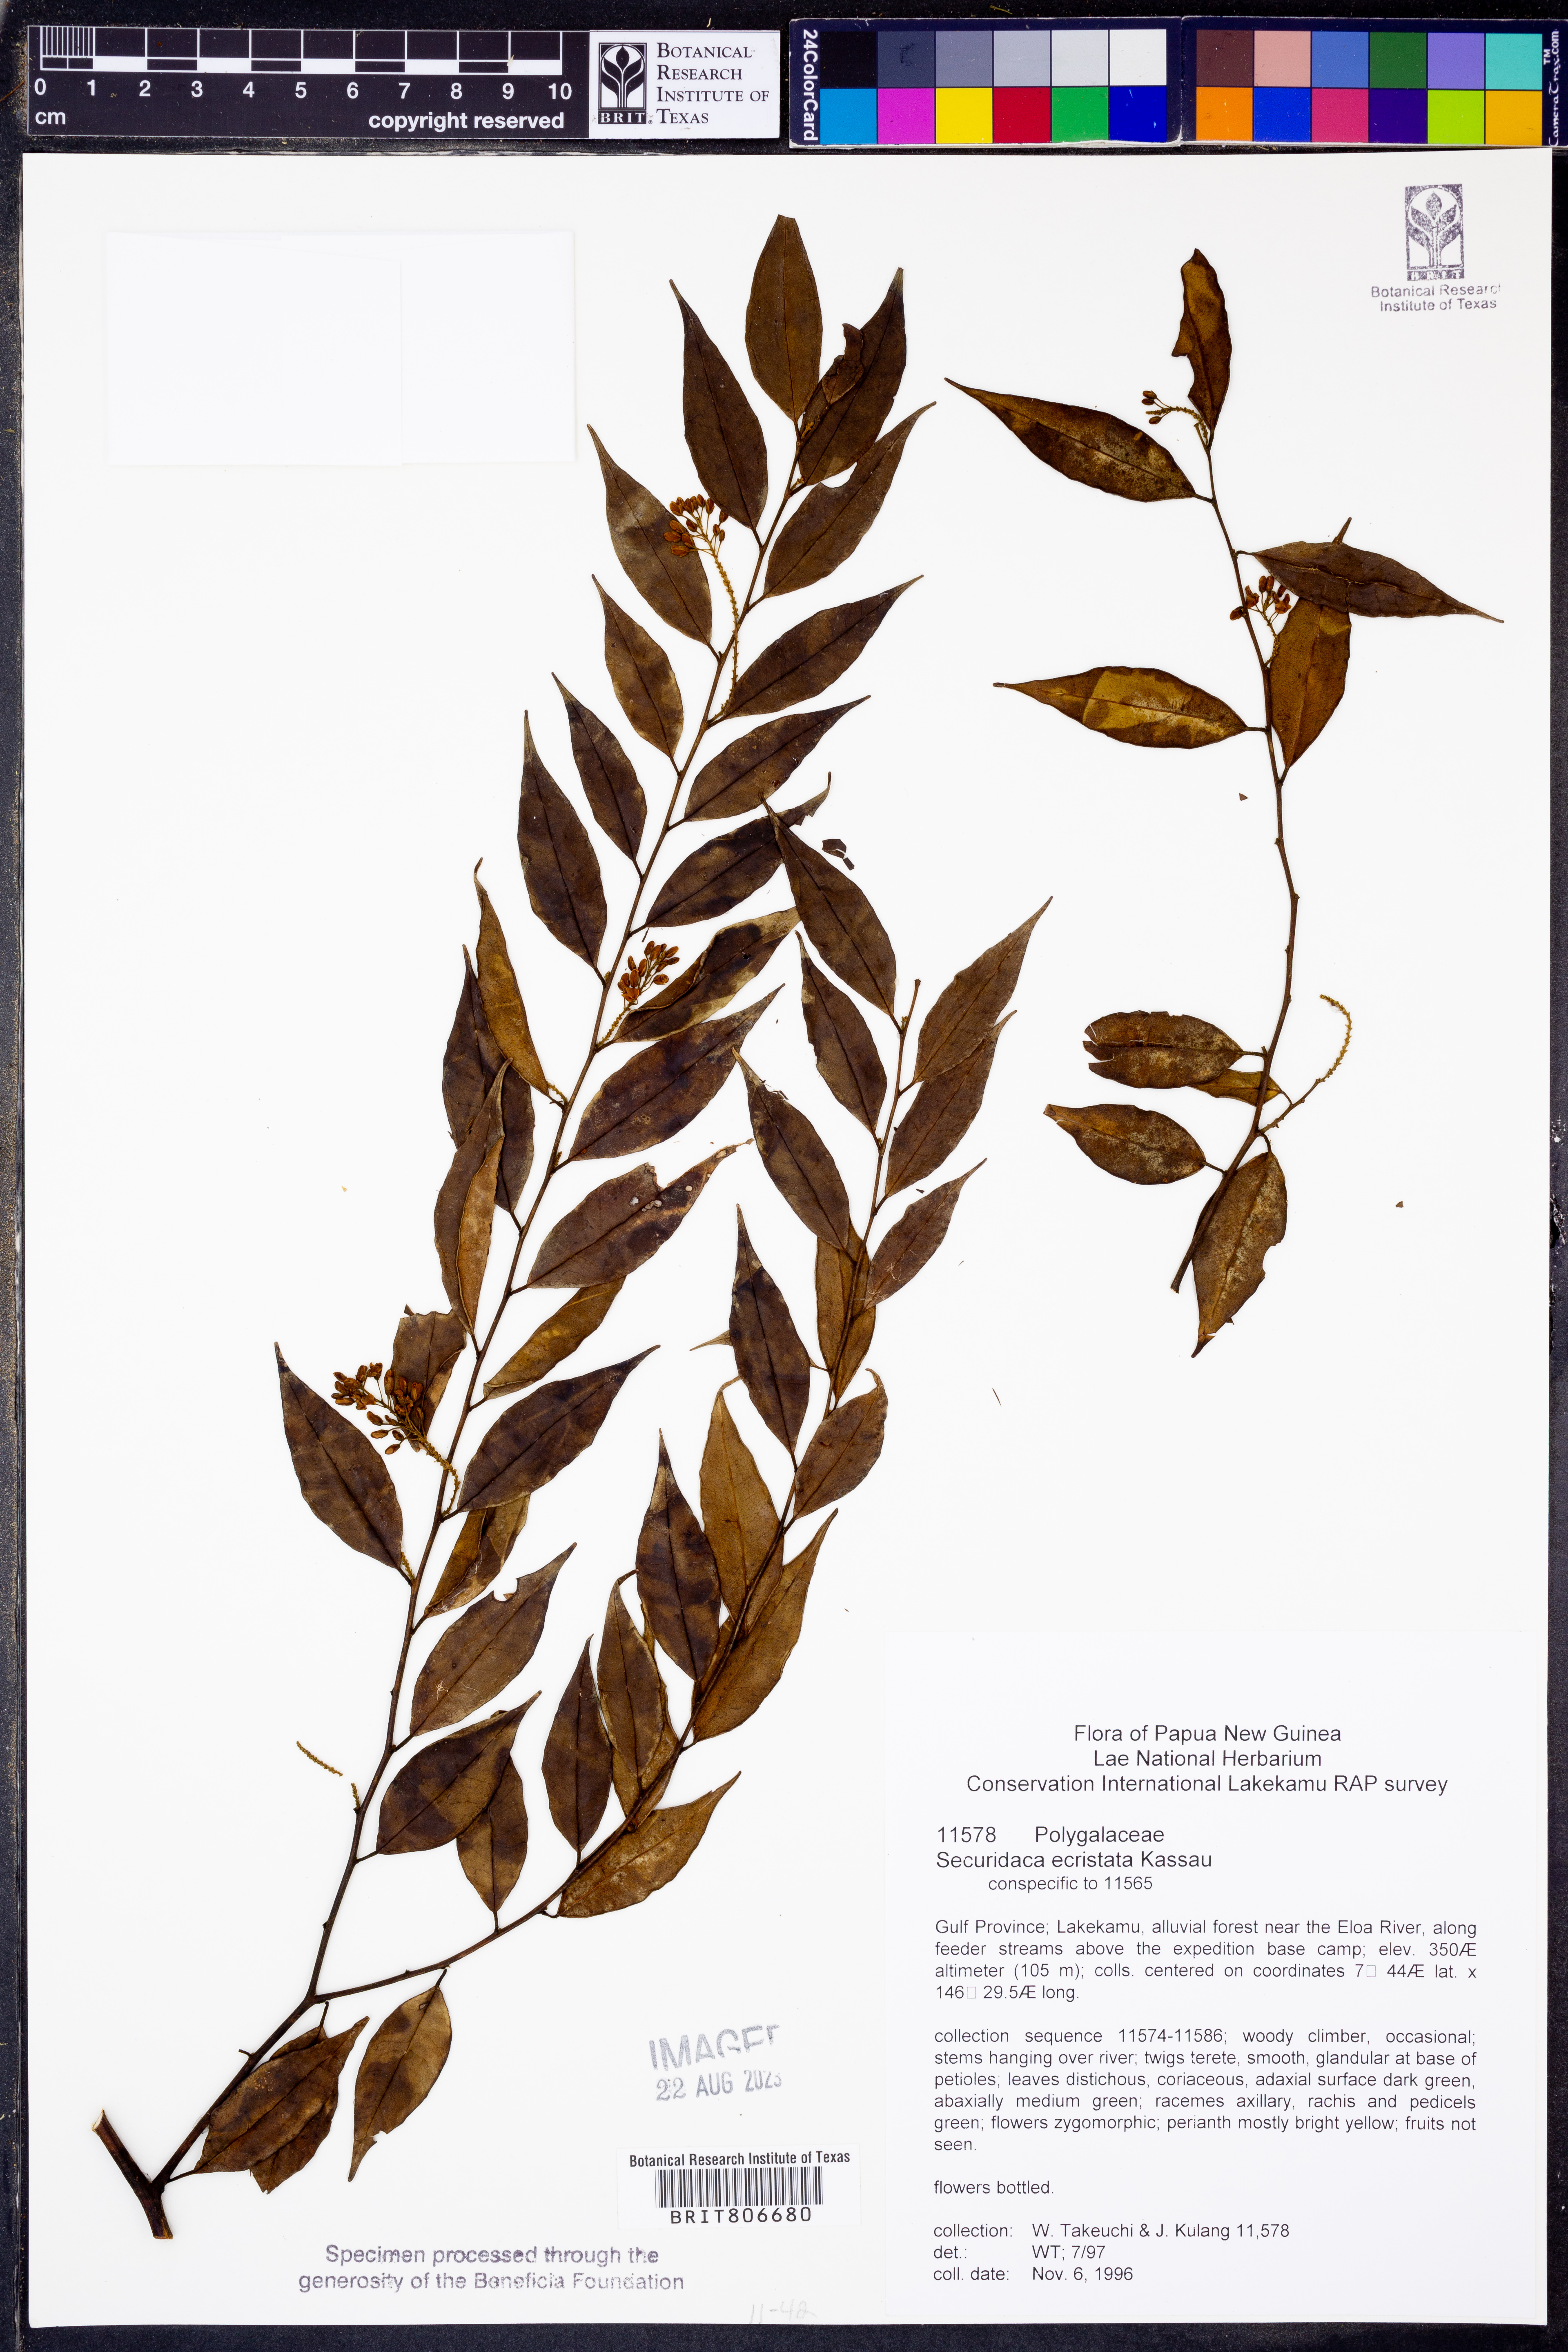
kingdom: Plantae
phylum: Tracheophyta
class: Magnoliopsida
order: Fabales
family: Polygalaceae
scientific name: Polygalaceae
